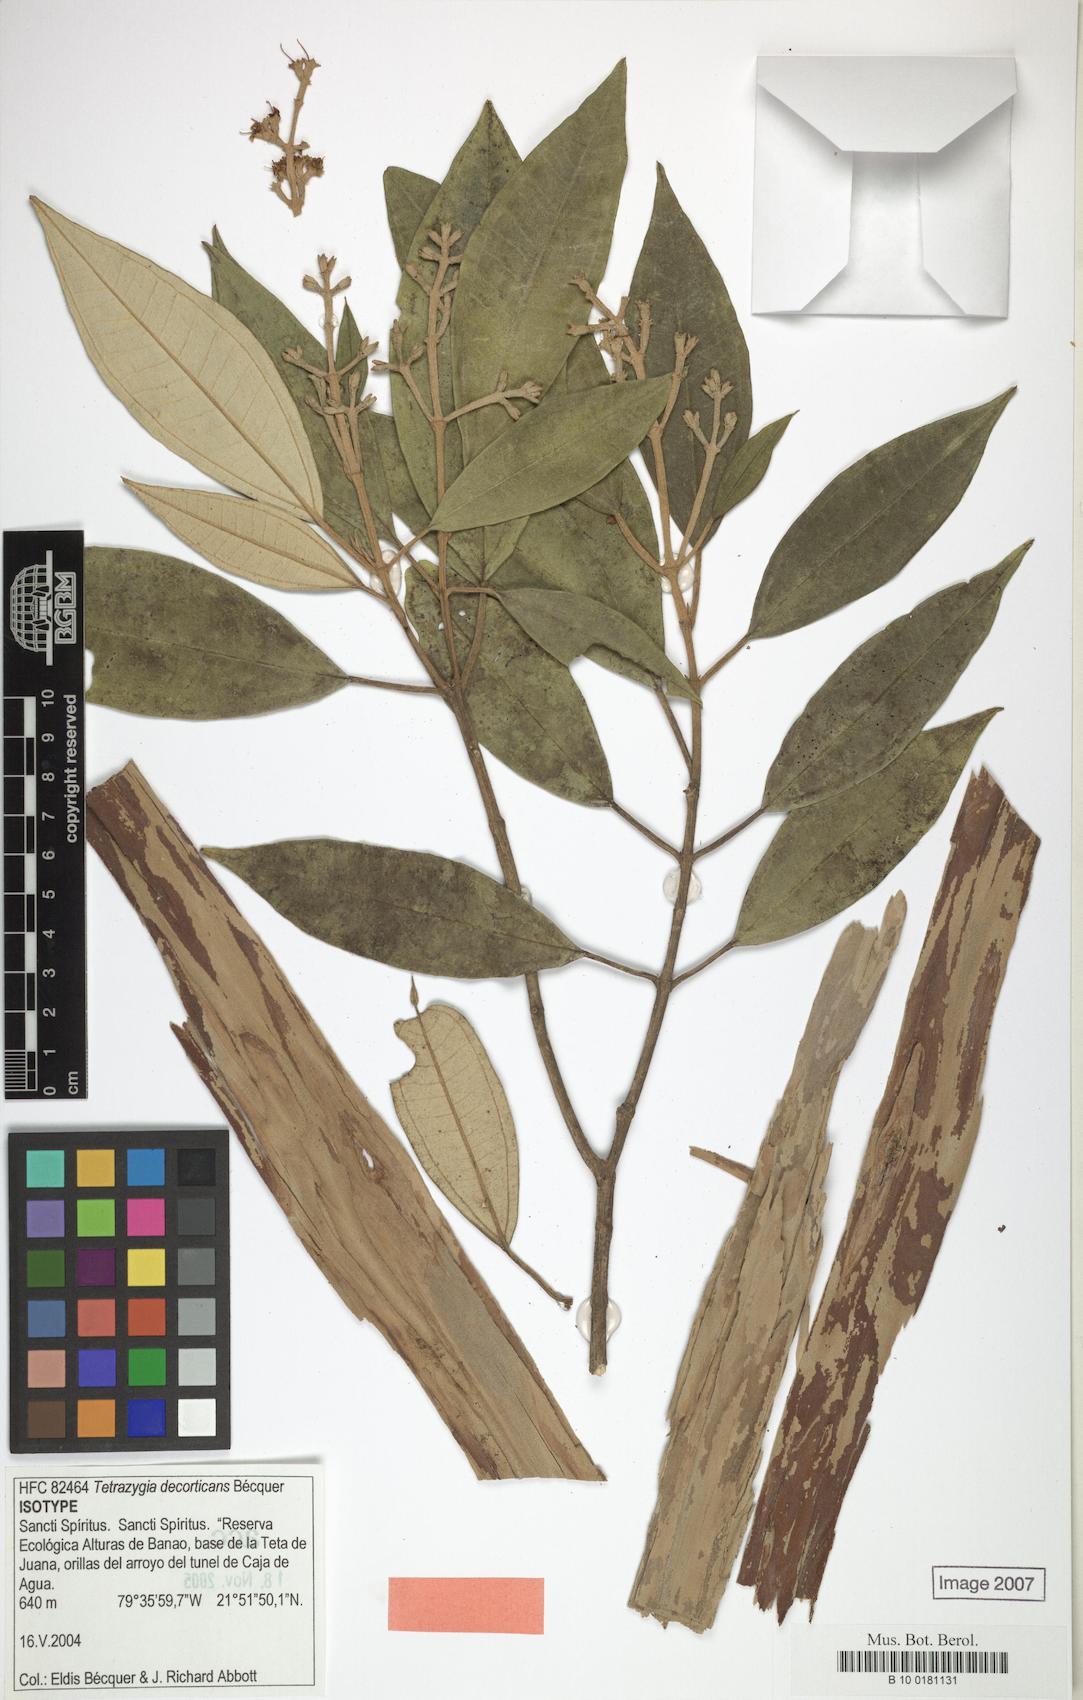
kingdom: Plantae
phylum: Tracheophyta
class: Magnoliopsida
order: Myrtales
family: Melastomataceae
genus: Miconia
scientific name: Miconia decorticans
